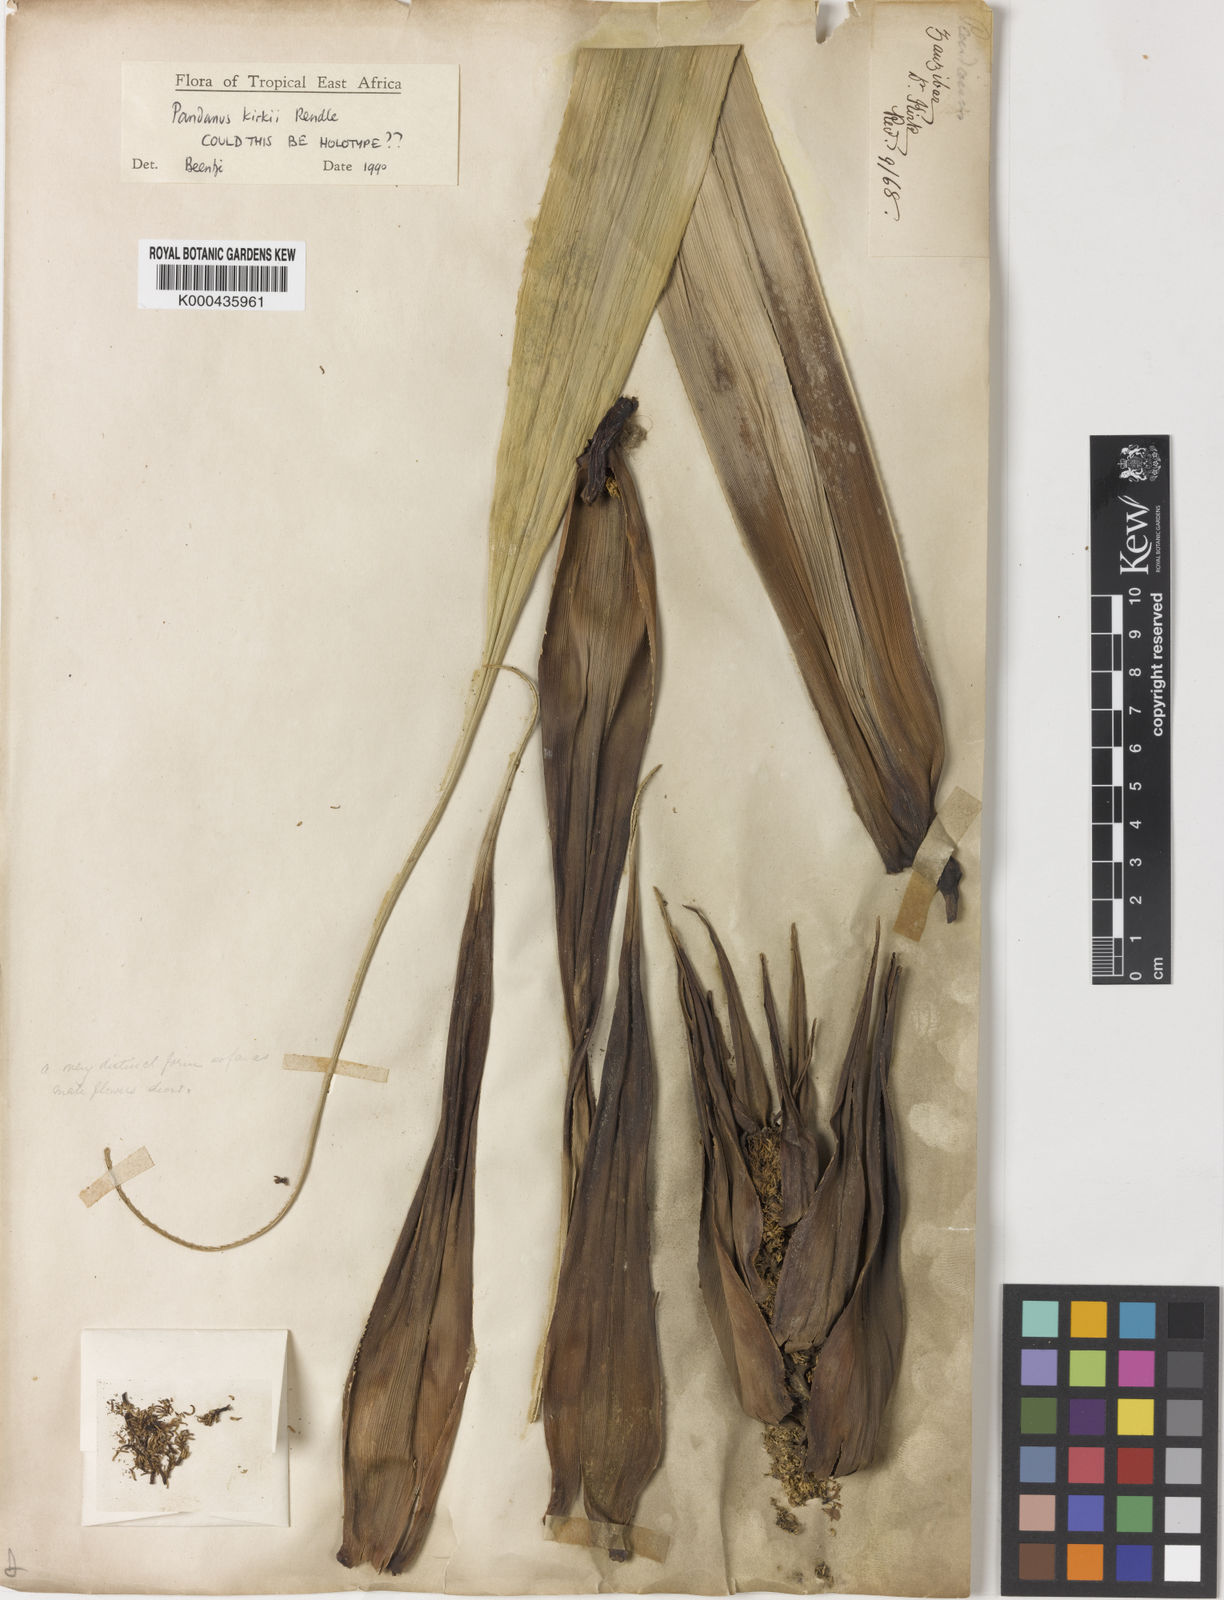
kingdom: Plantae
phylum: Tracheophyta
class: Liliopsida
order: Pandanales
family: Pandanaceae
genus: Pandanus
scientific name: Pandanus kirkii
